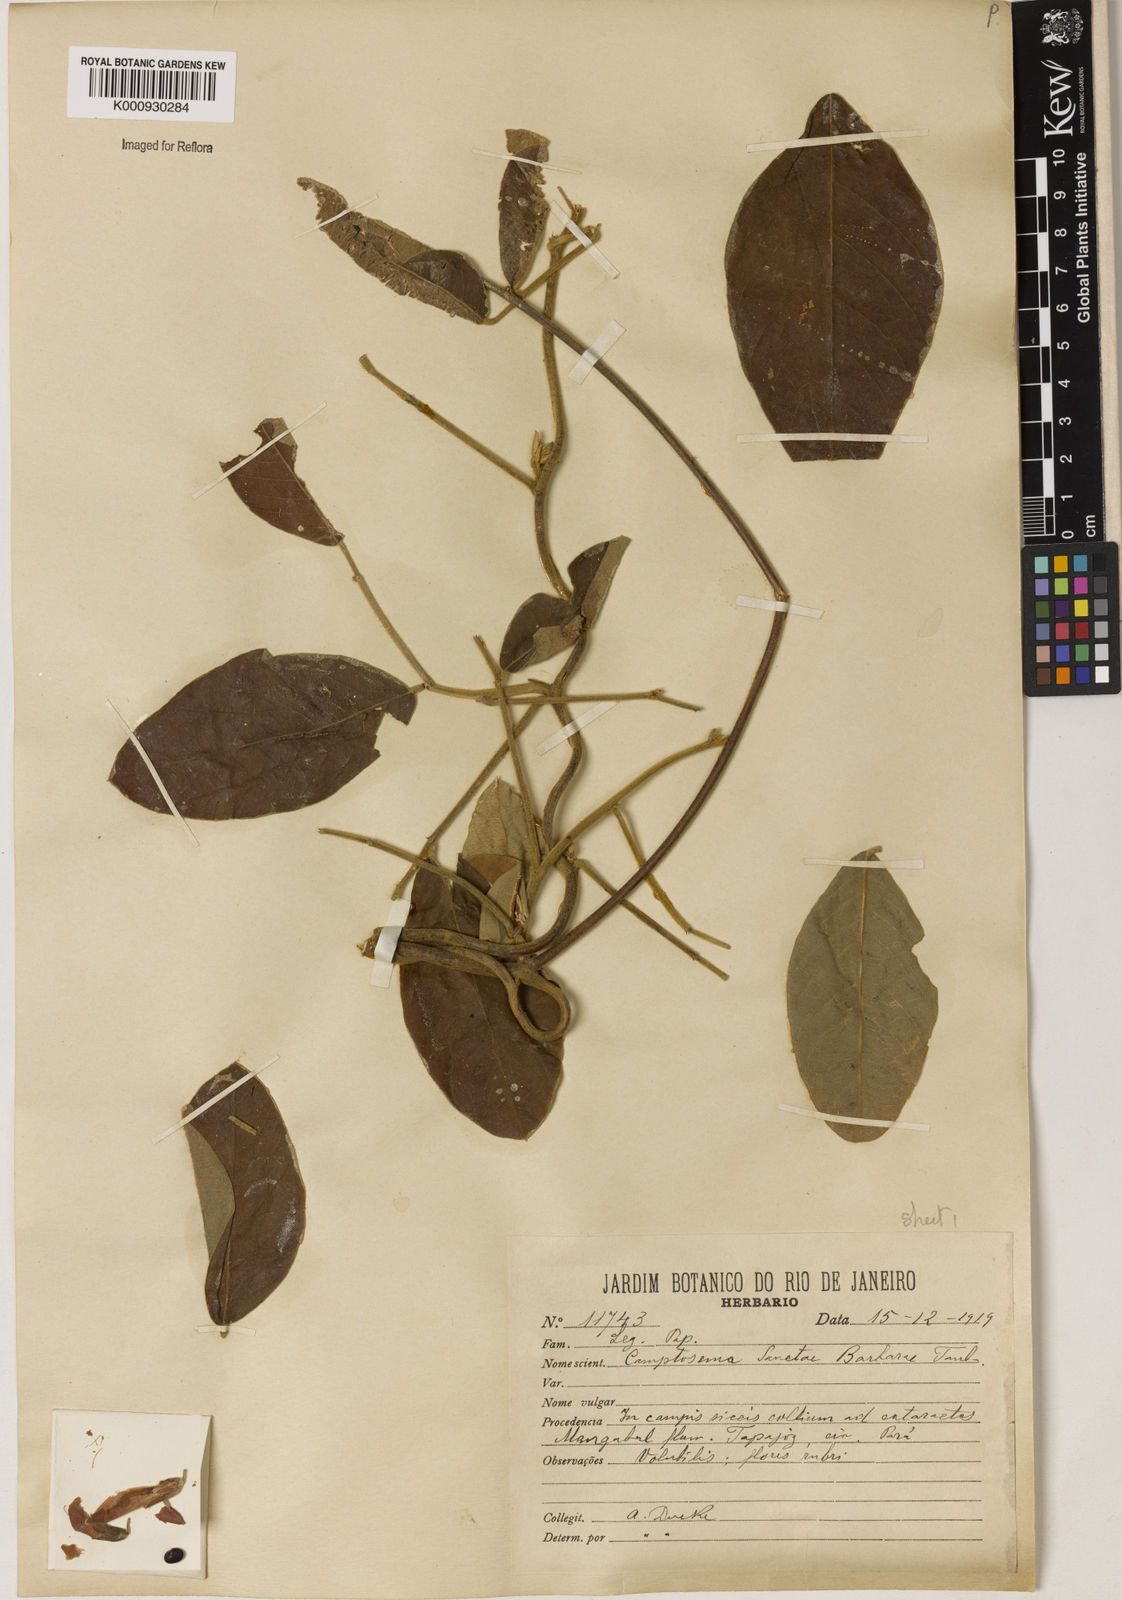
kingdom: Plantae
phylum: Tracheophyta
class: Magnoliopsida
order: Fabales
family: Fabaceae
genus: Camptosema
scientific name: Camptosema sanctae-barbarae
